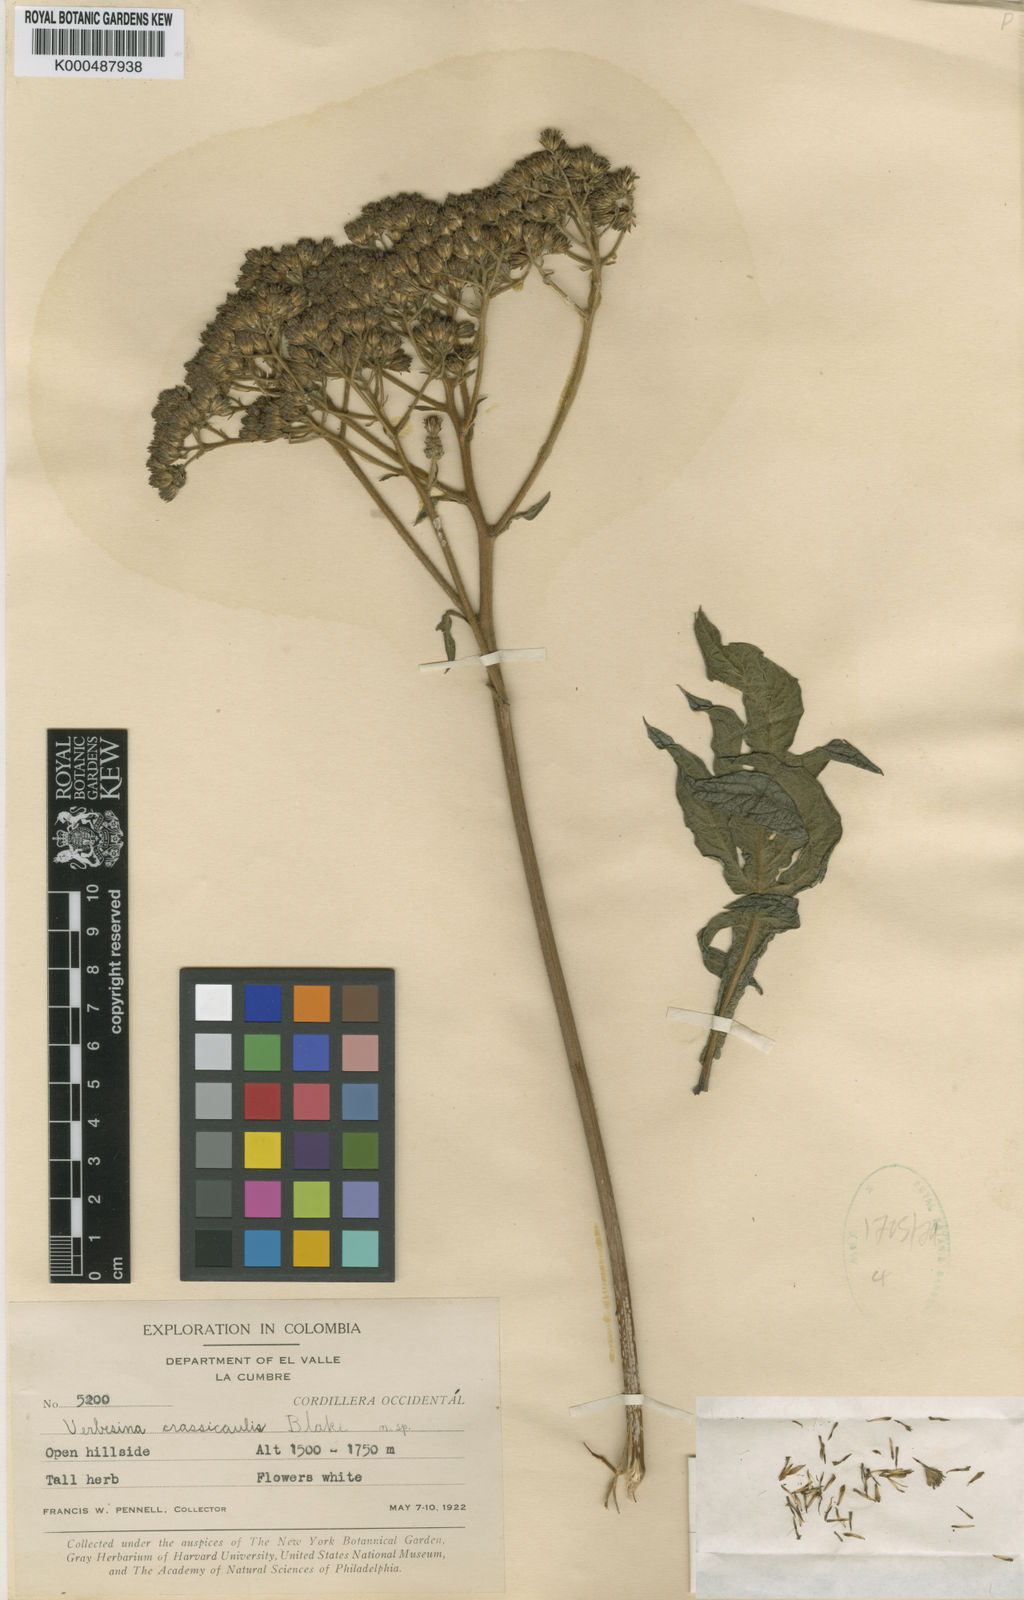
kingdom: Plantae
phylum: Tracheophyta
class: Magnoliopsida
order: Asterales
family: Asteraceae
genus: Verbesina
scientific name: Verbesina crassicaulis
